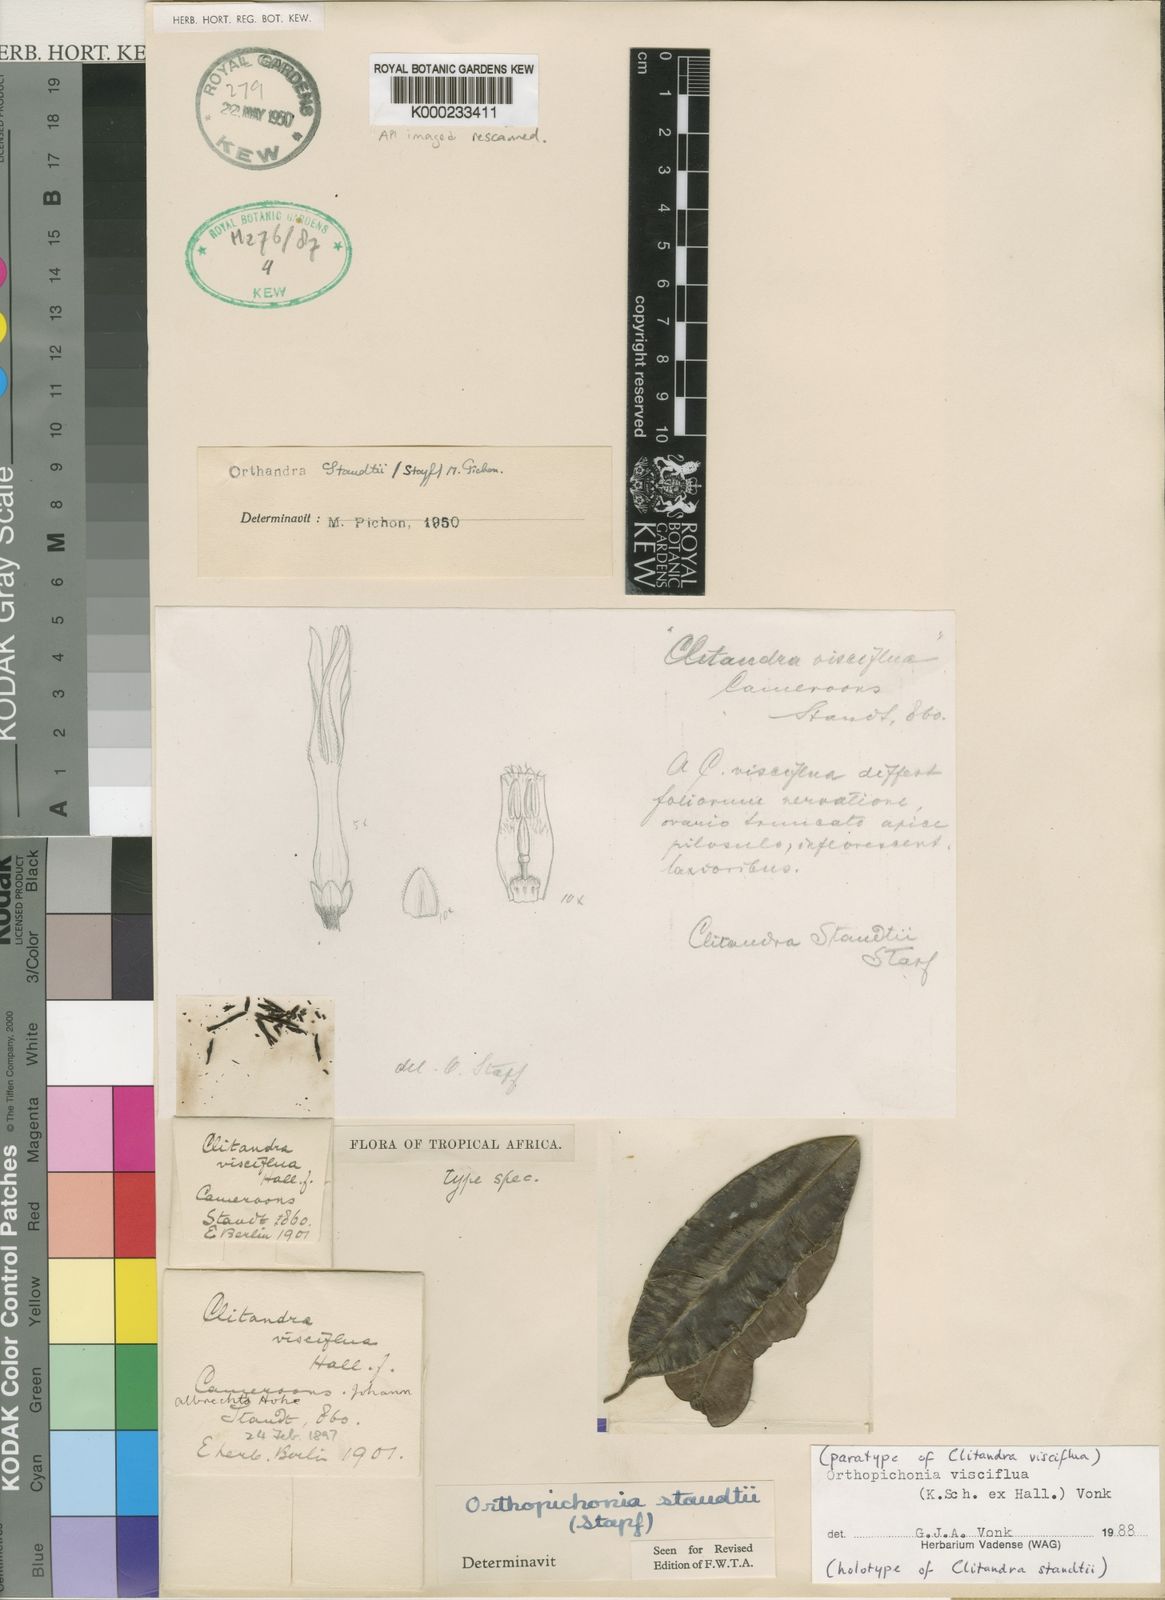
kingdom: Plantae
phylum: Tracheophyta
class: Magnoliopsida
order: Gentianales
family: Apocynaceae
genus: Orthopichonia
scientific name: Orthopichonia visciflua
